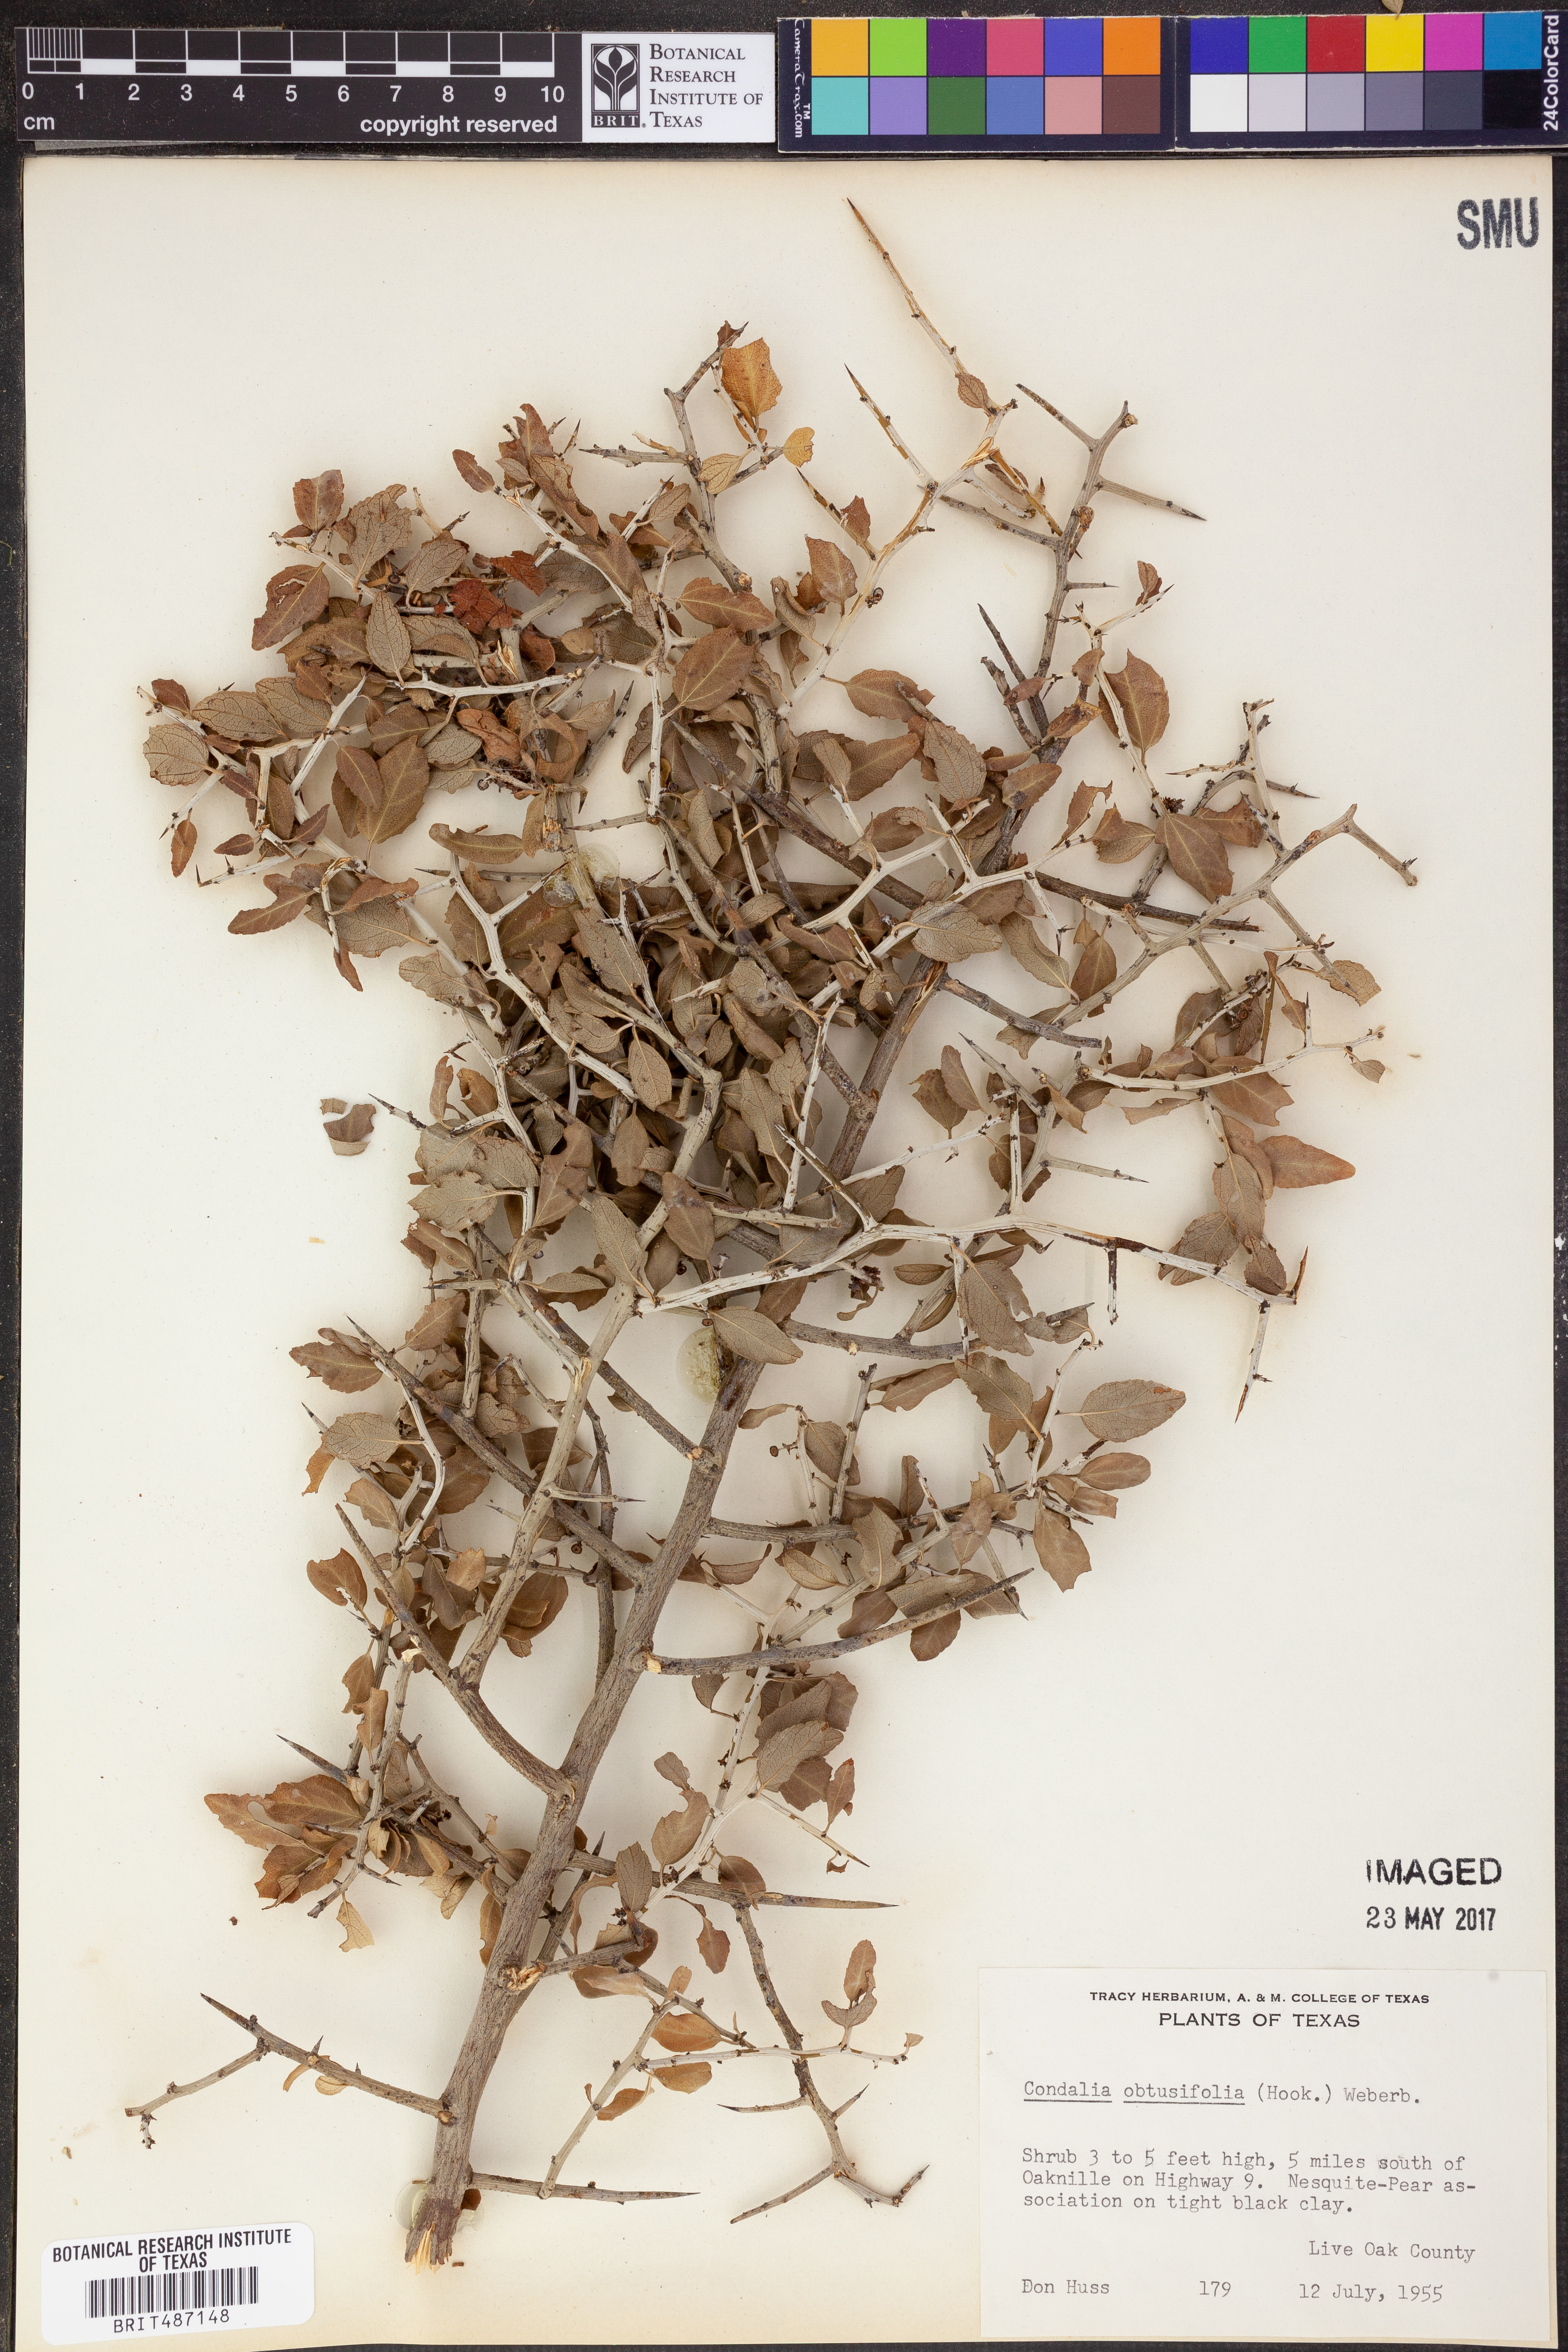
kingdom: Plantae
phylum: Tracheophyta
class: Magnoliopsida
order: Rosales
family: Rhamnaceae
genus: Sarcomphalus
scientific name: Sarcomphalus obtusifolius
